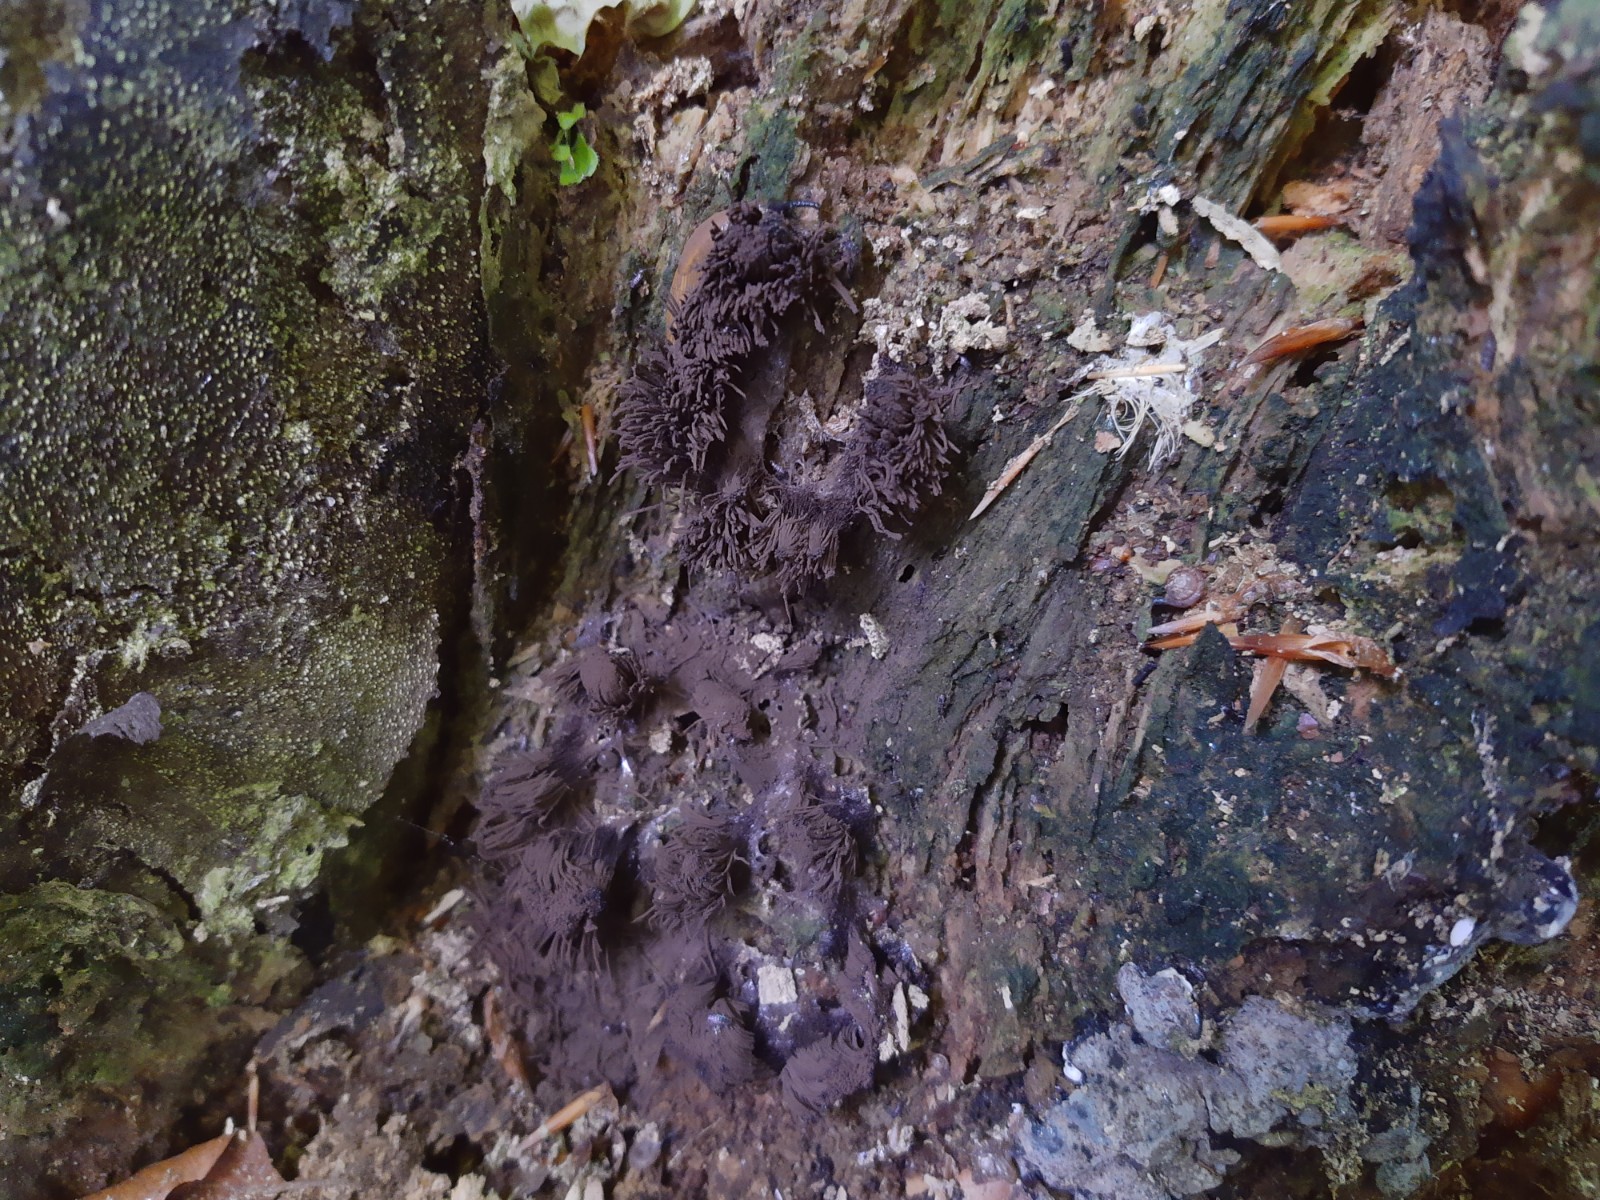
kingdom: Protozoa
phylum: Mycetozoa
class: Myxomycetes
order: Stemonitidales
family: Stemonitidaceae
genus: Stemonitis
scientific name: Stemonitis fusca
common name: sodbrun støvkølle
